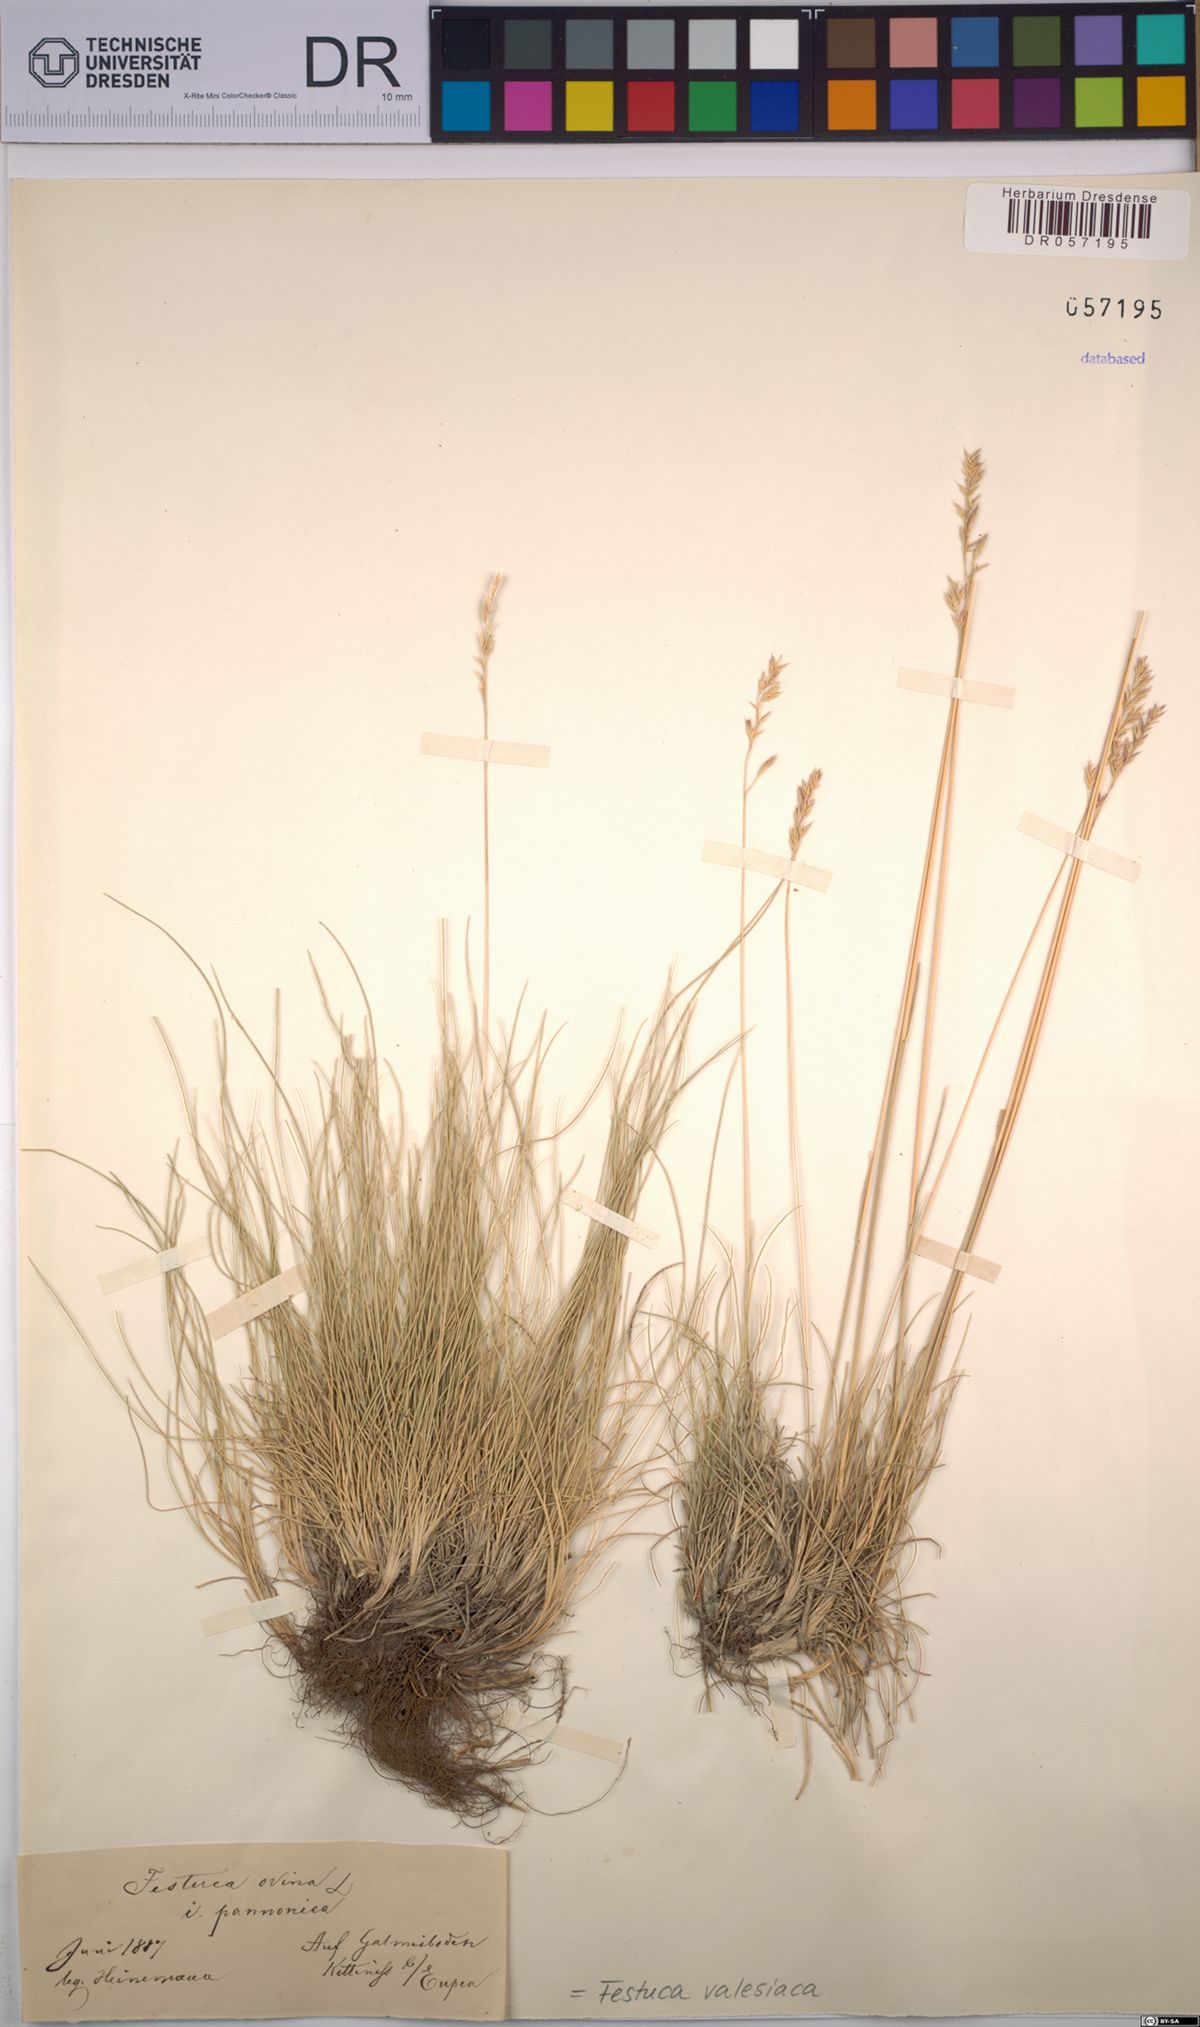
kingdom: Plantae
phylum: Tracheophyta
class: Liliopsida
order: Poales
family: Poaceae
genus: Festuca
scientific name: Festuca valesiaca
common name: Volga fescue
